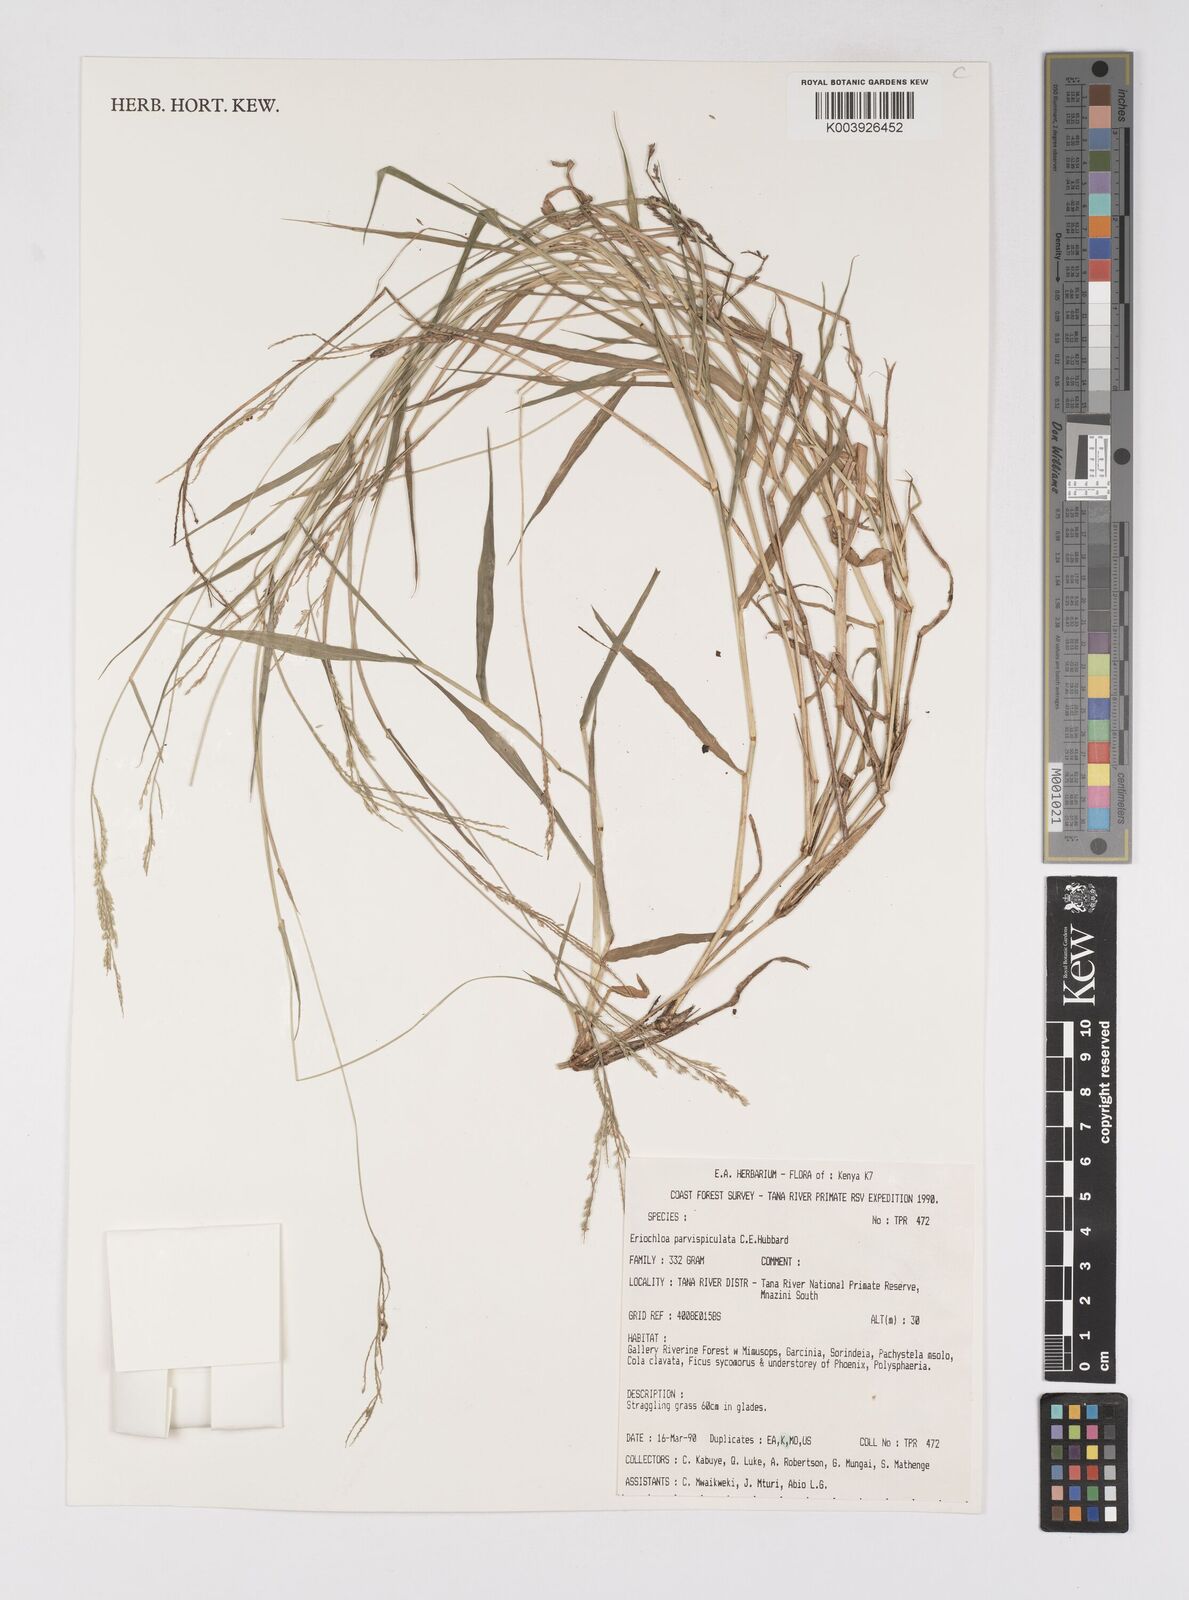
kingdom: Plantae
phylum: Tracheophyta
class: Liliopsida
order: Poales
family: Poaceae
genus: Eriochloa
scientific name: Eriochloa parvispiculata
